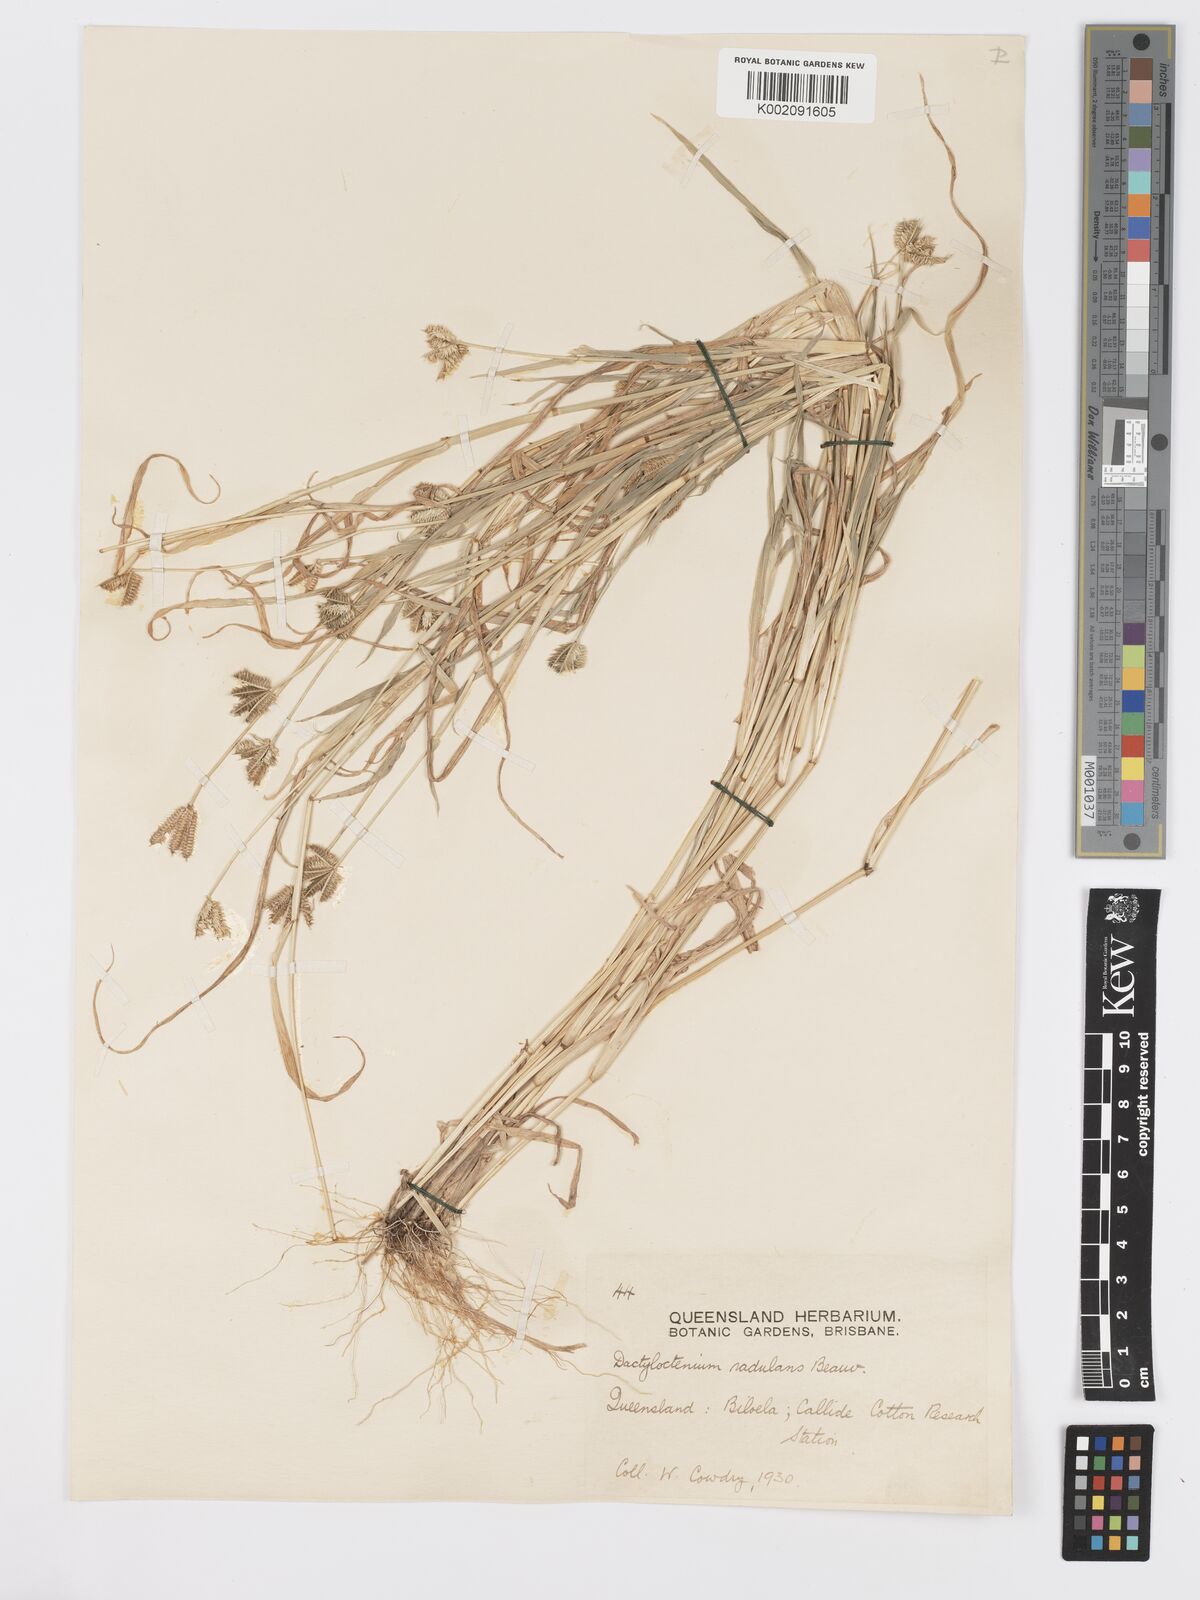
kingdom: Plantae
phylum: Tracheophyta
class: Liliopsida
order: Poales
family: Poaceae
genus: Dactyloctenium
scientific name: Dactyloctenium radulans
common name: Button-grass
